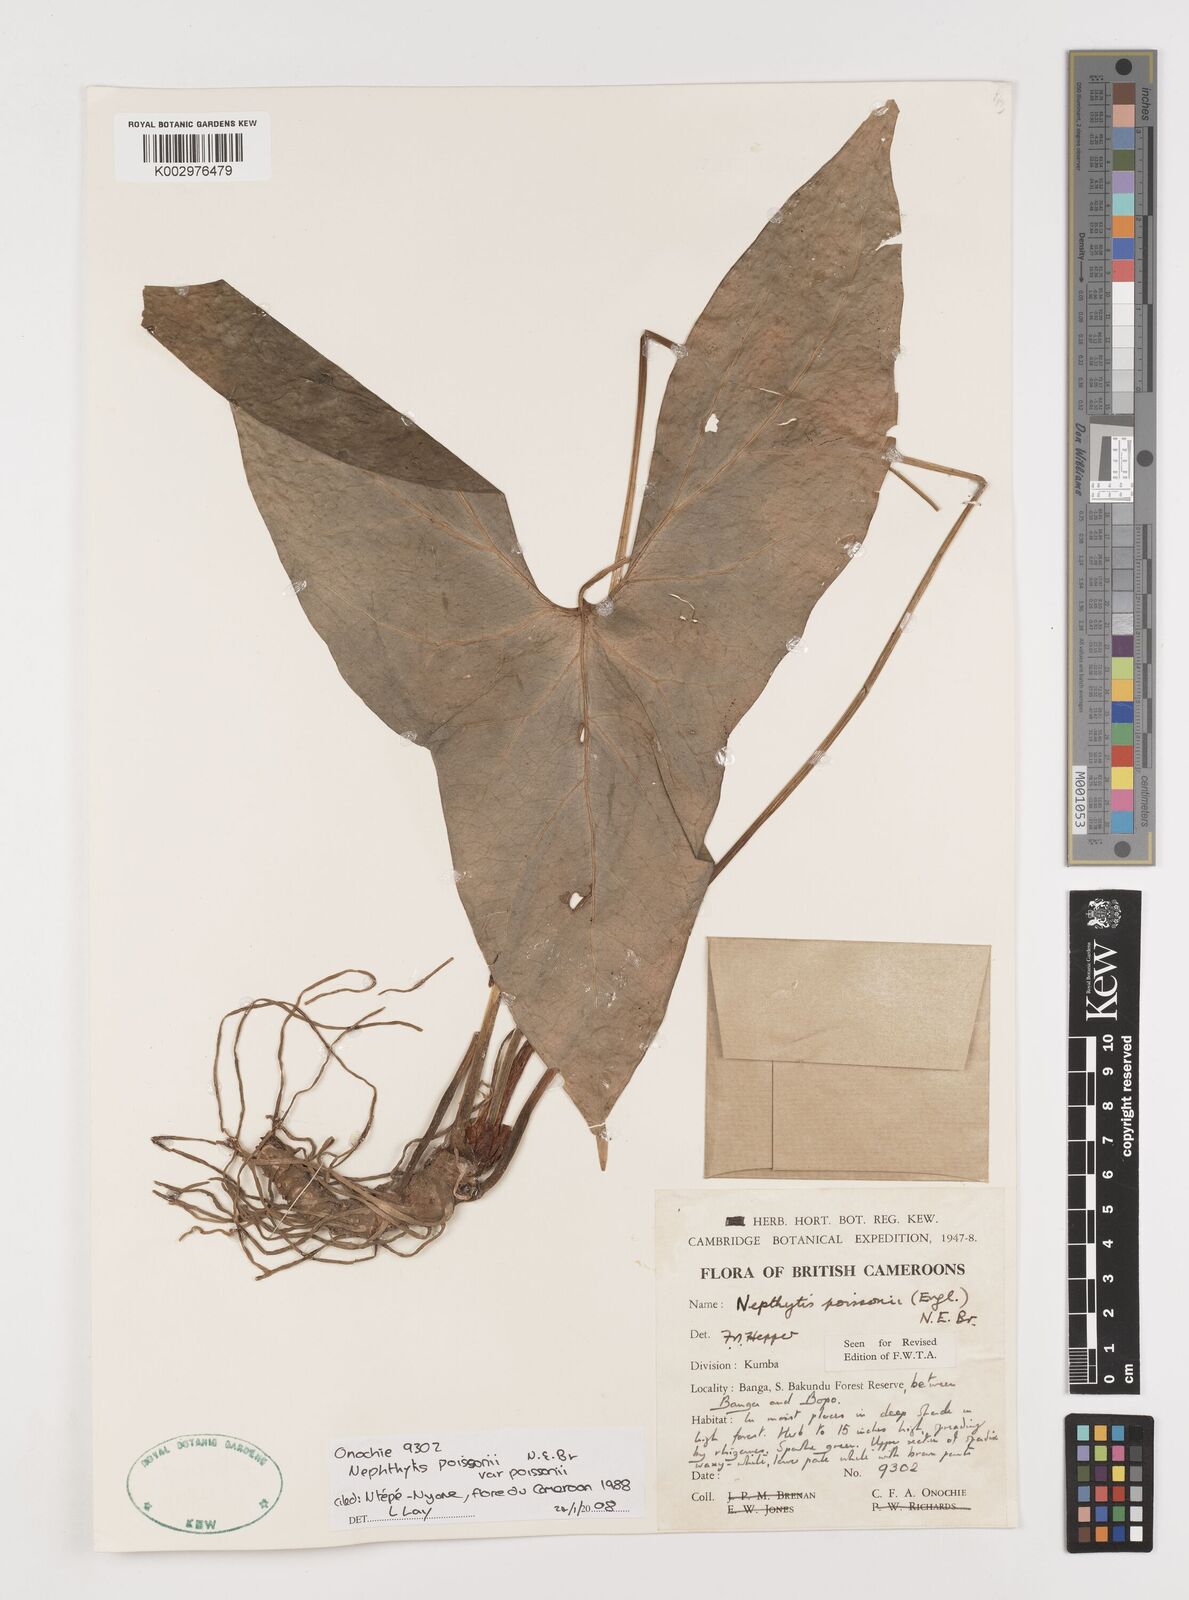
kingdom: Plantae
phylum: Tracheophyta
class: Liliopsida
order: Alismatales
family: Araceae
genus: Nephthytis
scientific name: Nephthytis poissonii
